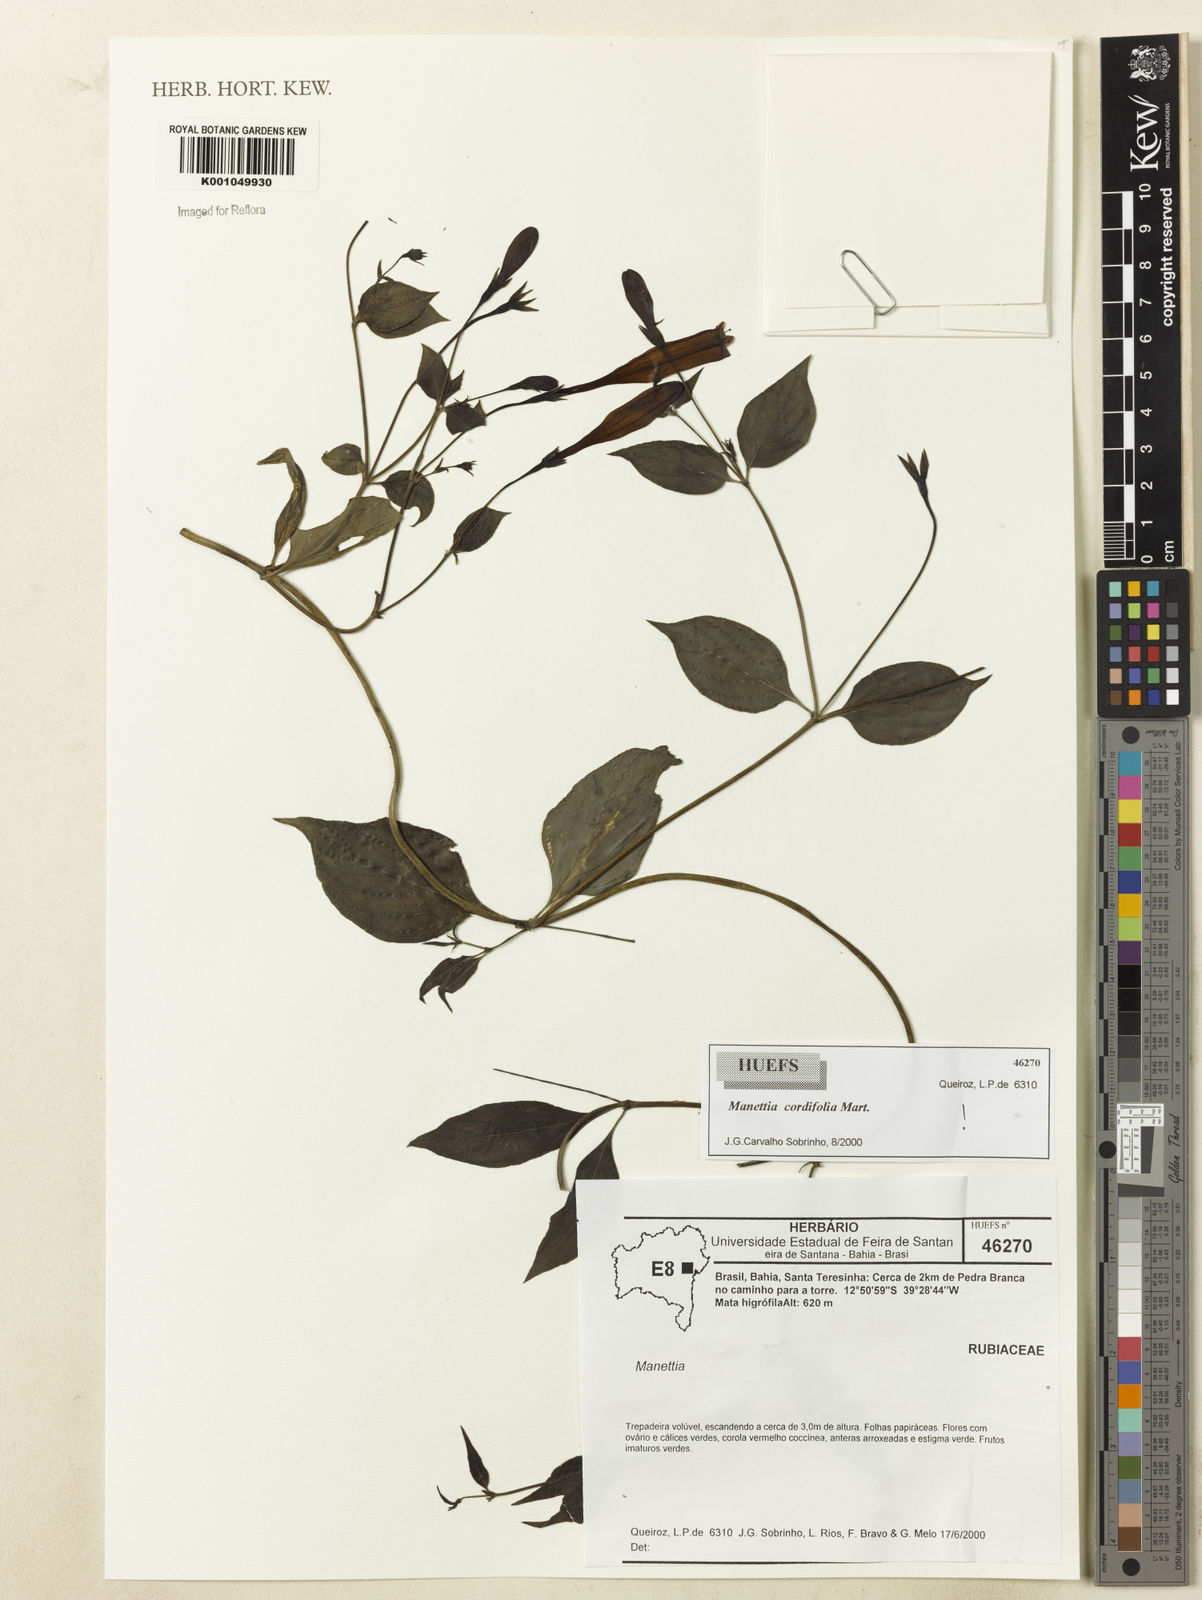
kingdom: Plantae
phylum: Tracheophyta
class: Magnoliopsida
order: Gentianales
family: Rubiaceae
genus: Manettia
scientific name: Manettia cordifolia
